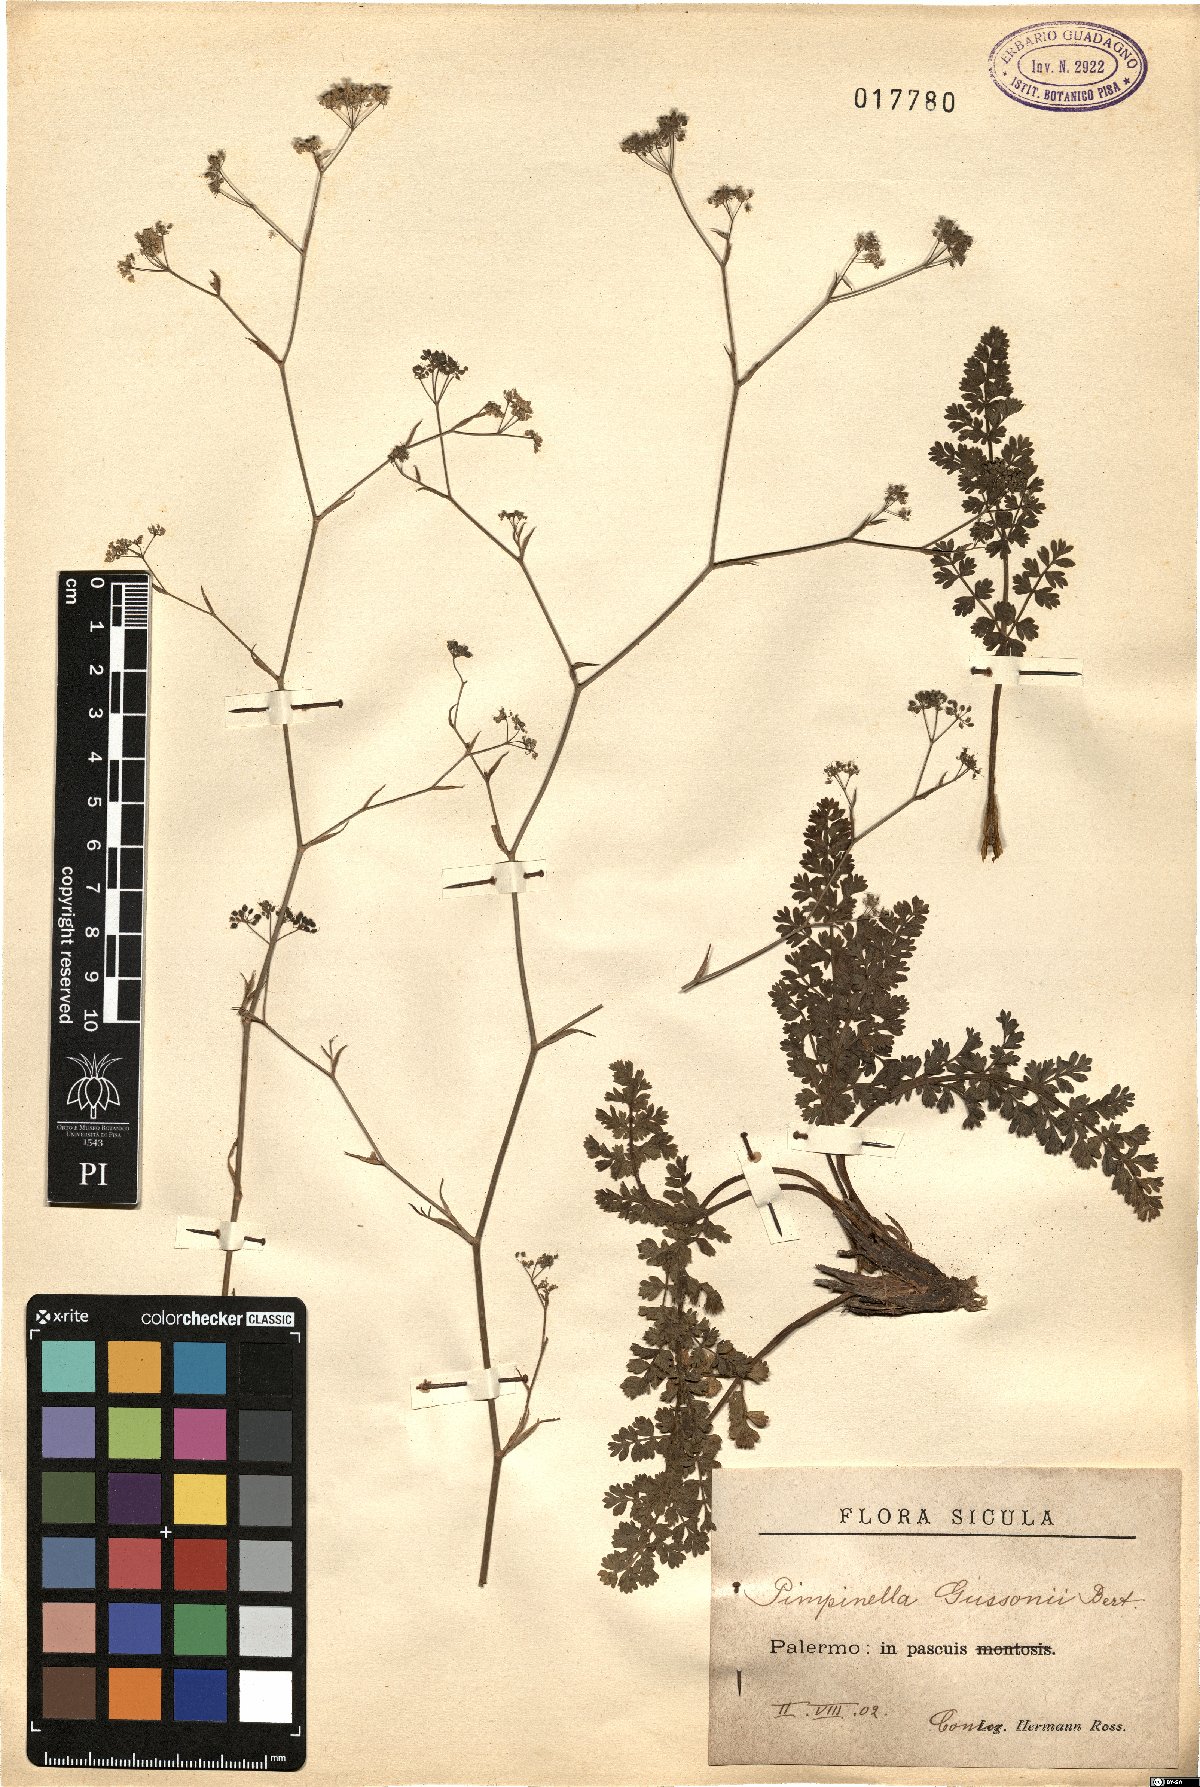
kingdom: Plantae
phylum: Tracheophyta
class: Magnoliopsida
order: Apiales
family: Apiaceae
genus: Pimpinella
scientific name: Pimpinella gussonei
